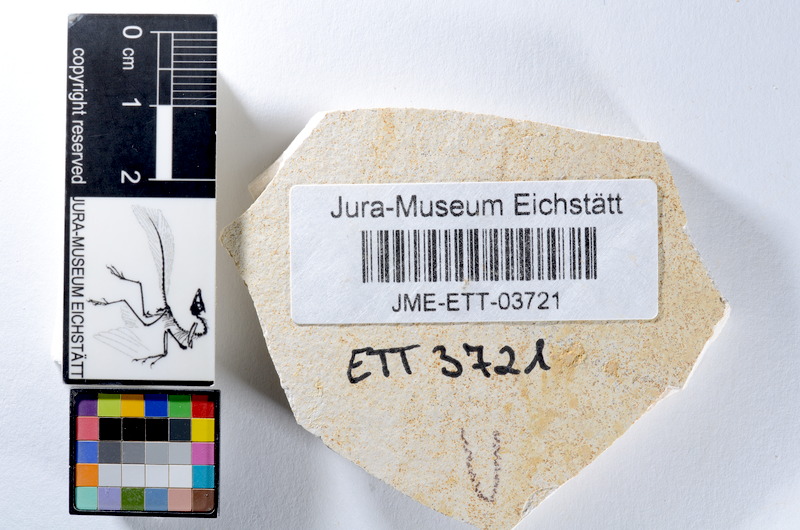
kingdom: Animalia
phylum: Chordata
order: Salmoniformes
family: Orthogonikleithridae
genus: Orthogonikleithrus
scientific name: Orthogonikleithrus hoelli
